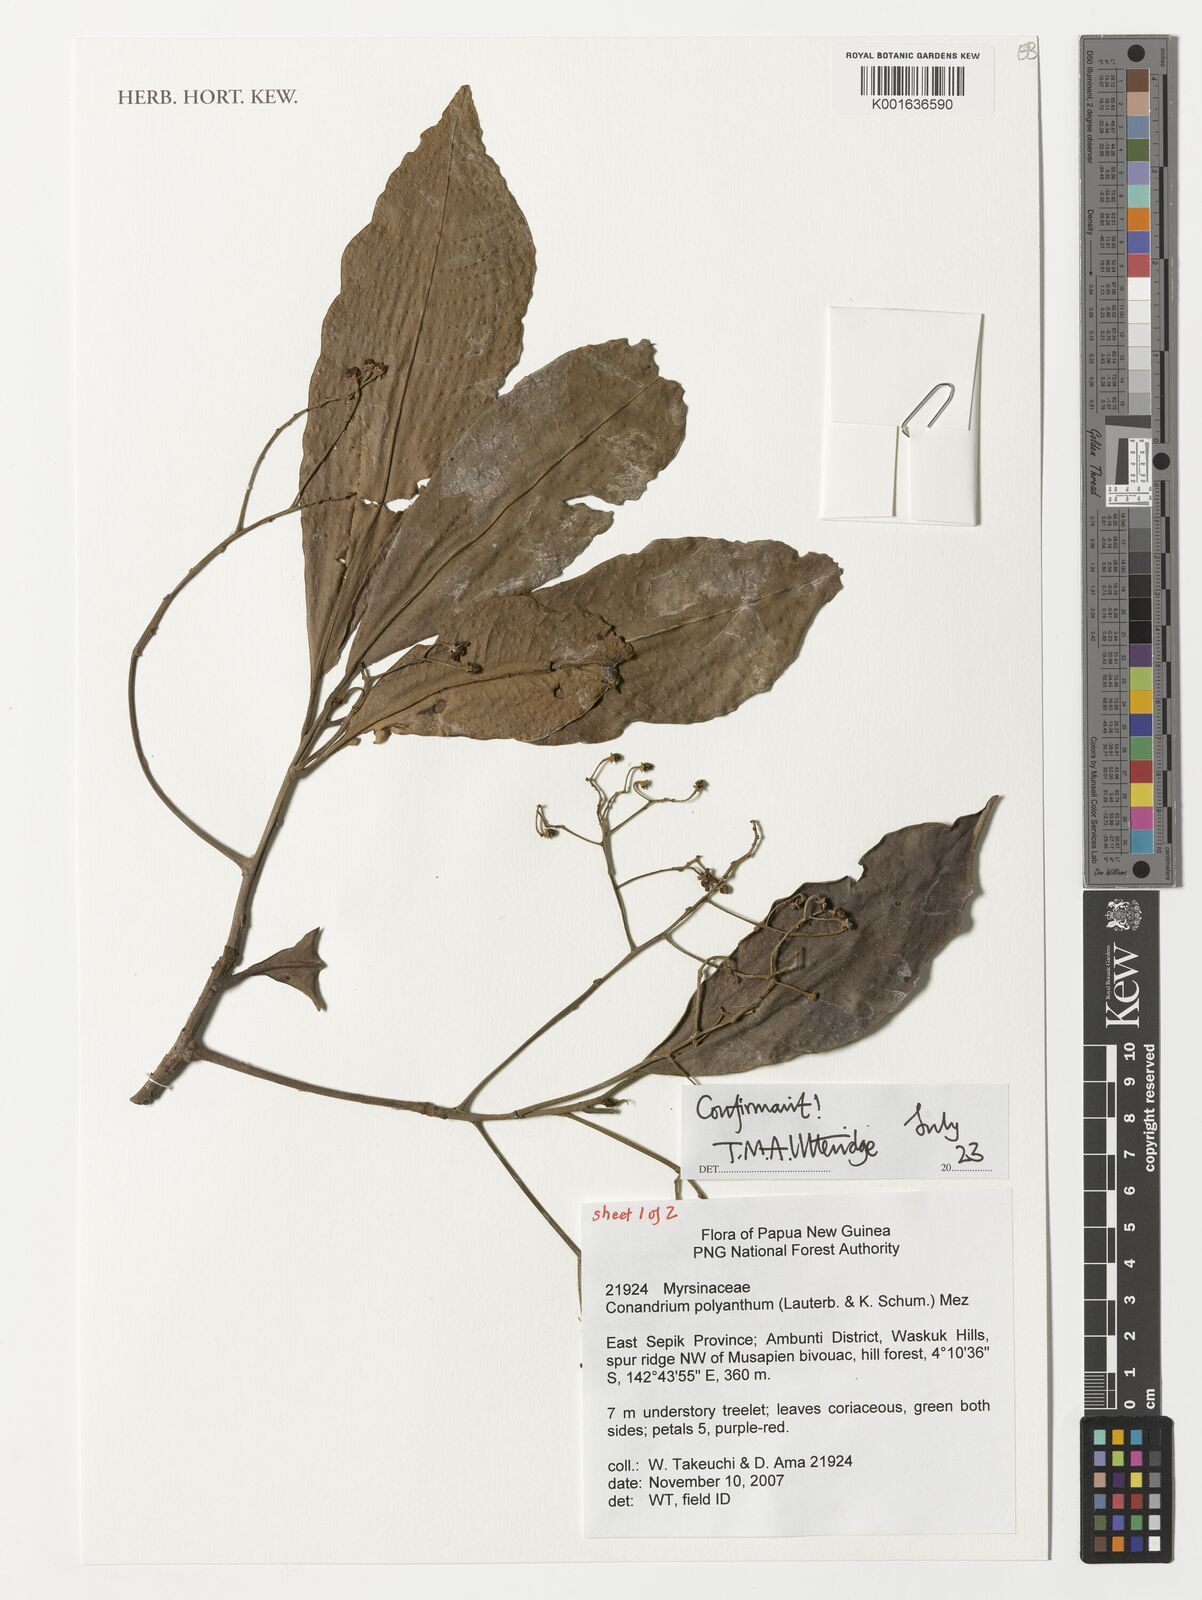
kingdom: Plantae
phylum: Tracheophyta
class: Magnoliopsida
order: Ericales
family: Primulaceae
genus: Conandrium
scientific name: Conandrium polyanthum
